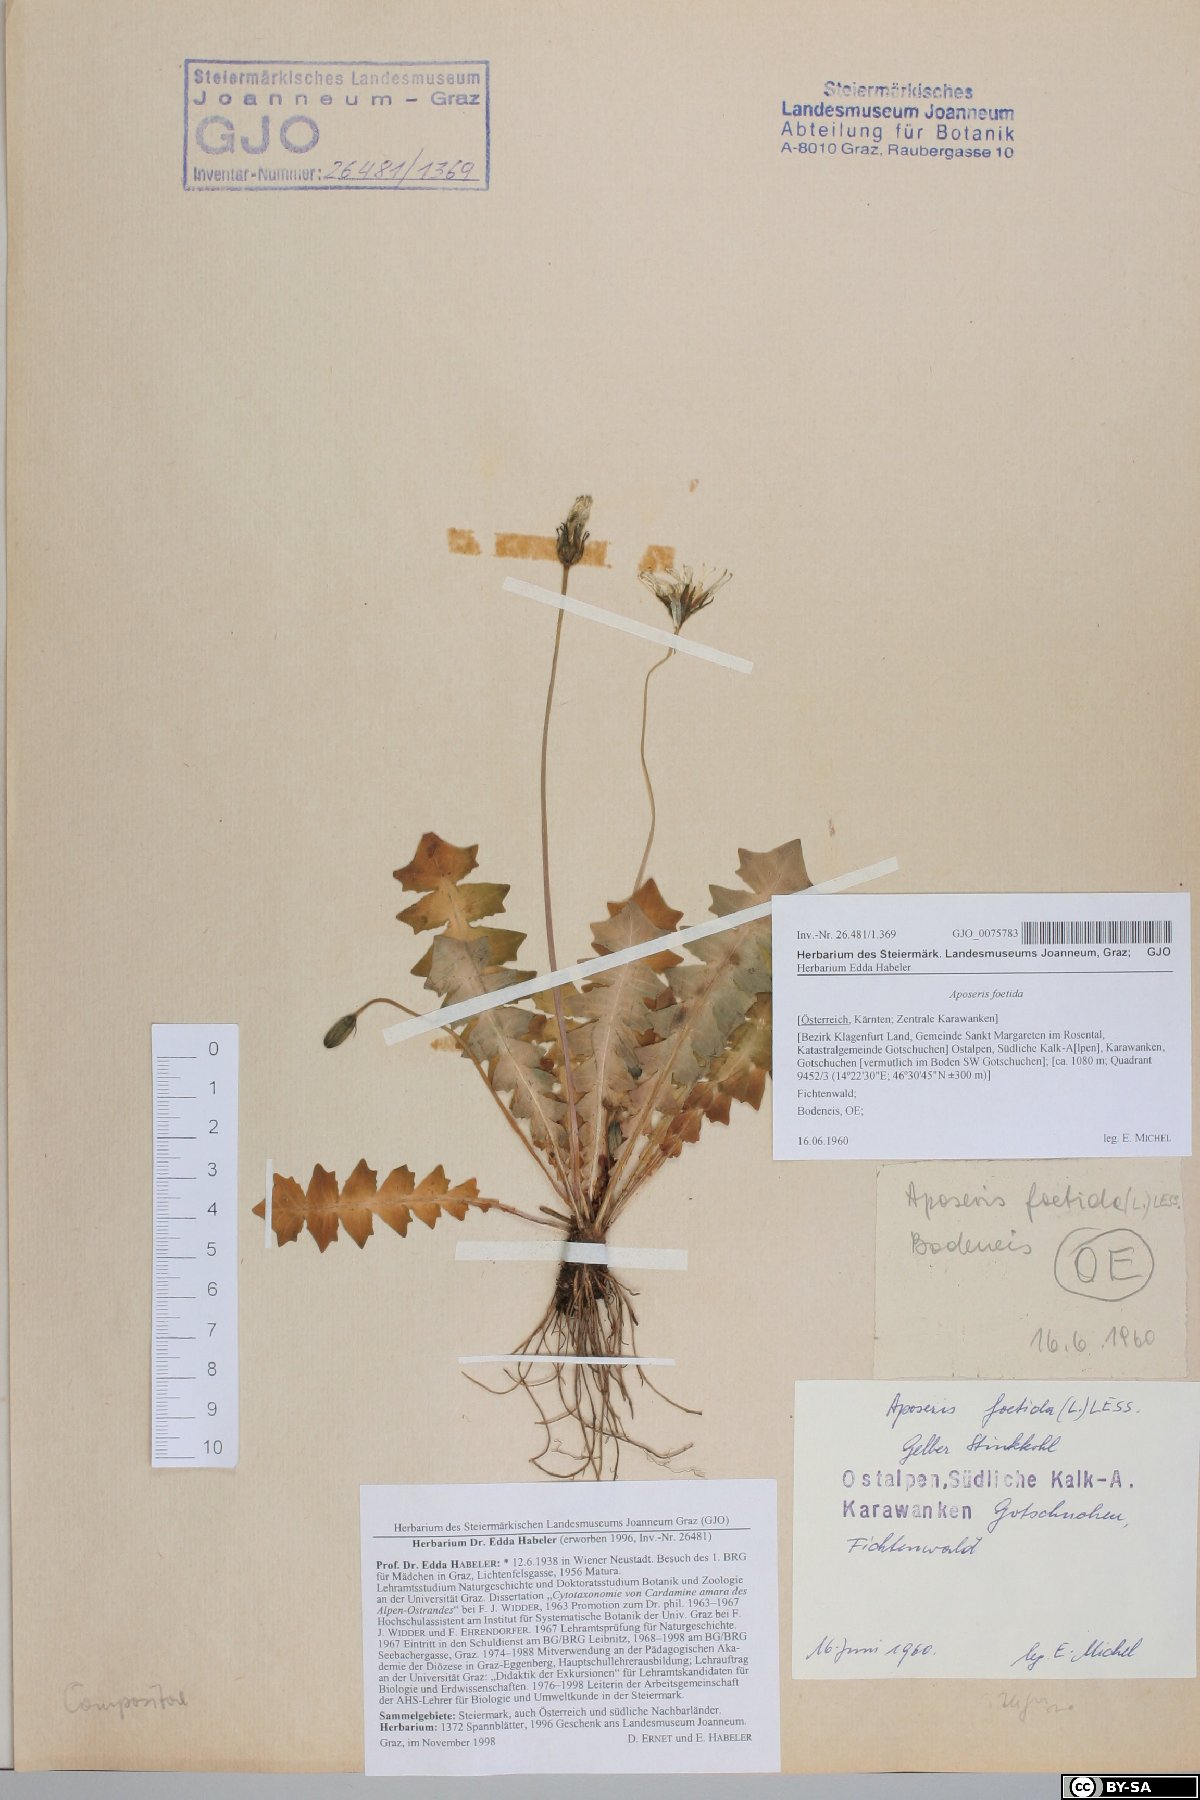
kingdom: Plantae
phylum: Tracheophyta
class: Magnoliopsida
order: Asterales
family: Asteraceae
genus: Aposeris
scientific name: Aposeris foetida
